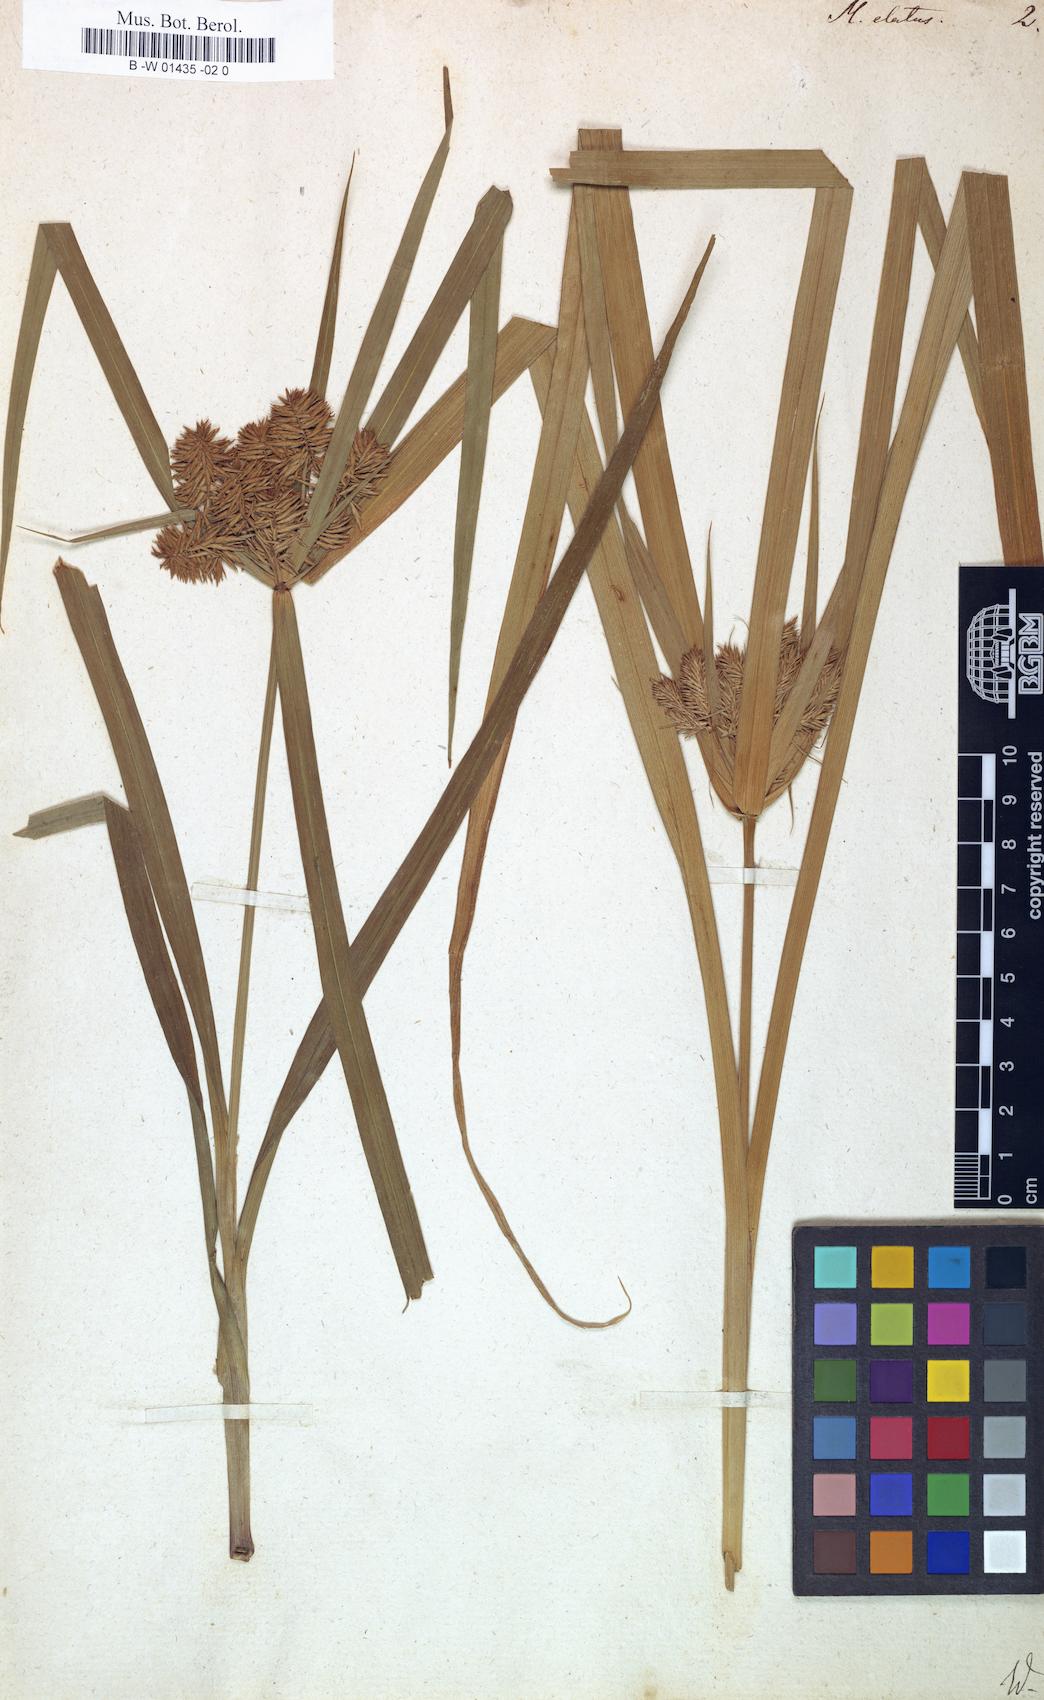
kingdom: Plantae
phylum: Tracheophyta
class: Liliopsida
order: Poales
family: Cyperaceae
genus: Cyperus
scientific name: Cyperus aggregatus
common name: Inflatedscale flatsedge
